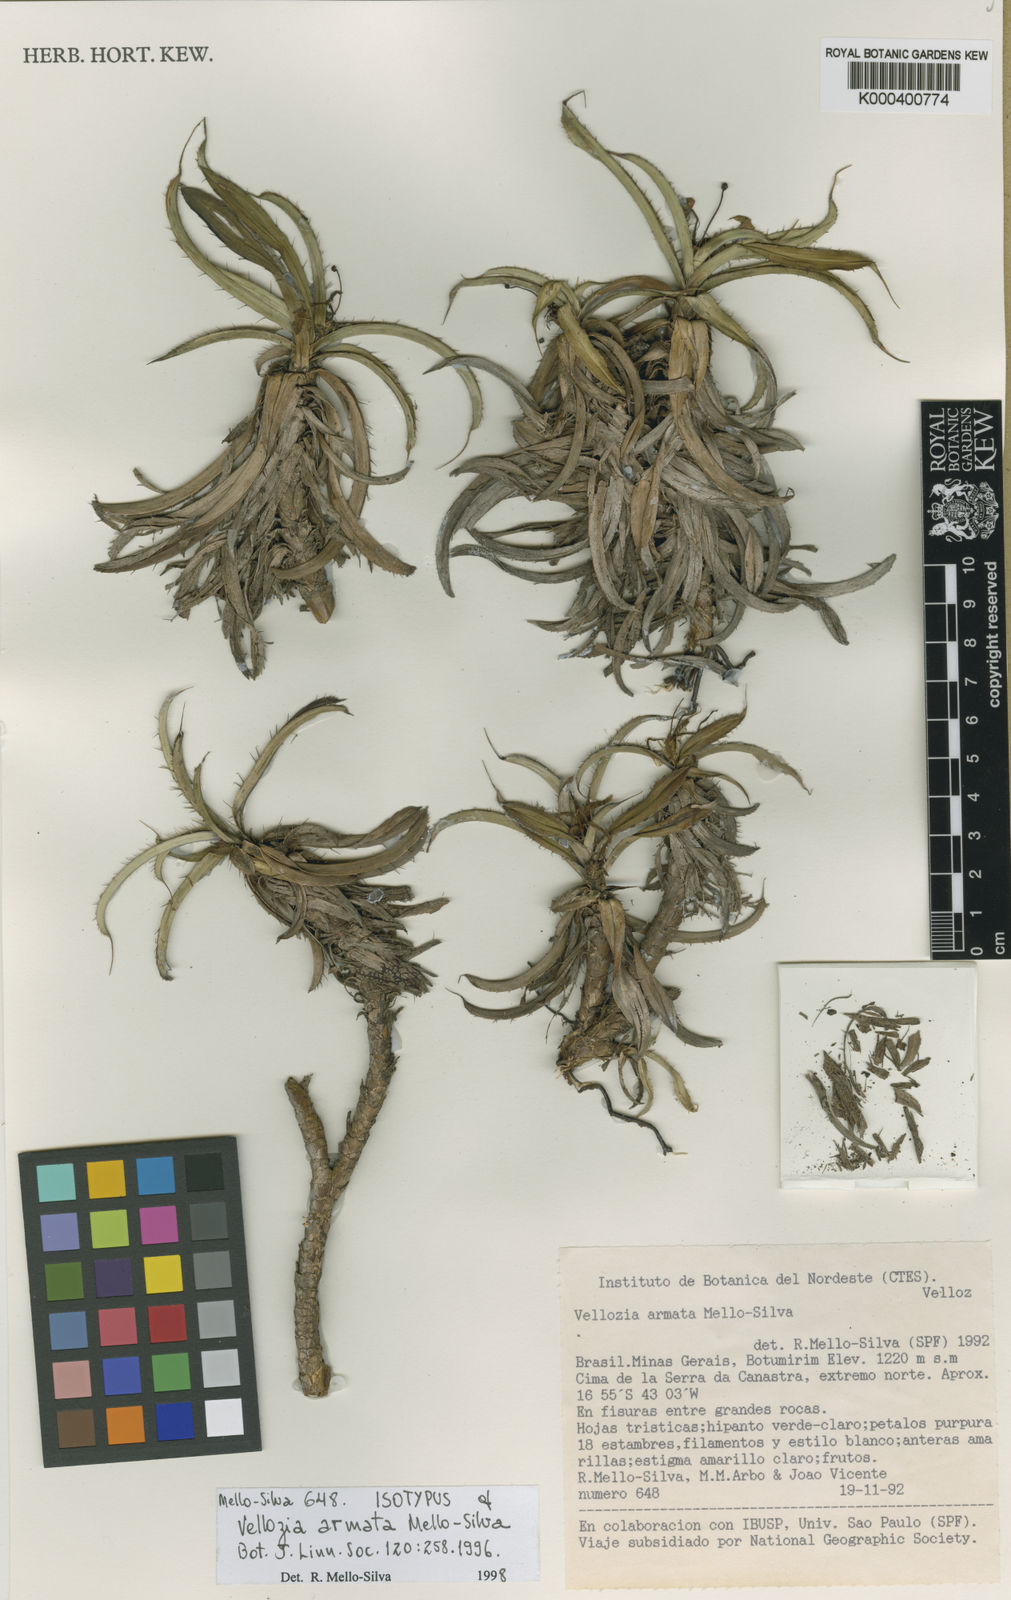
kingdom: Plantae
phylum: Tracheophyta
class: Liliopsida
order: Pandanales
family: Velloziaceae
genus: Vellozia
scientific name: Vellozia armata
